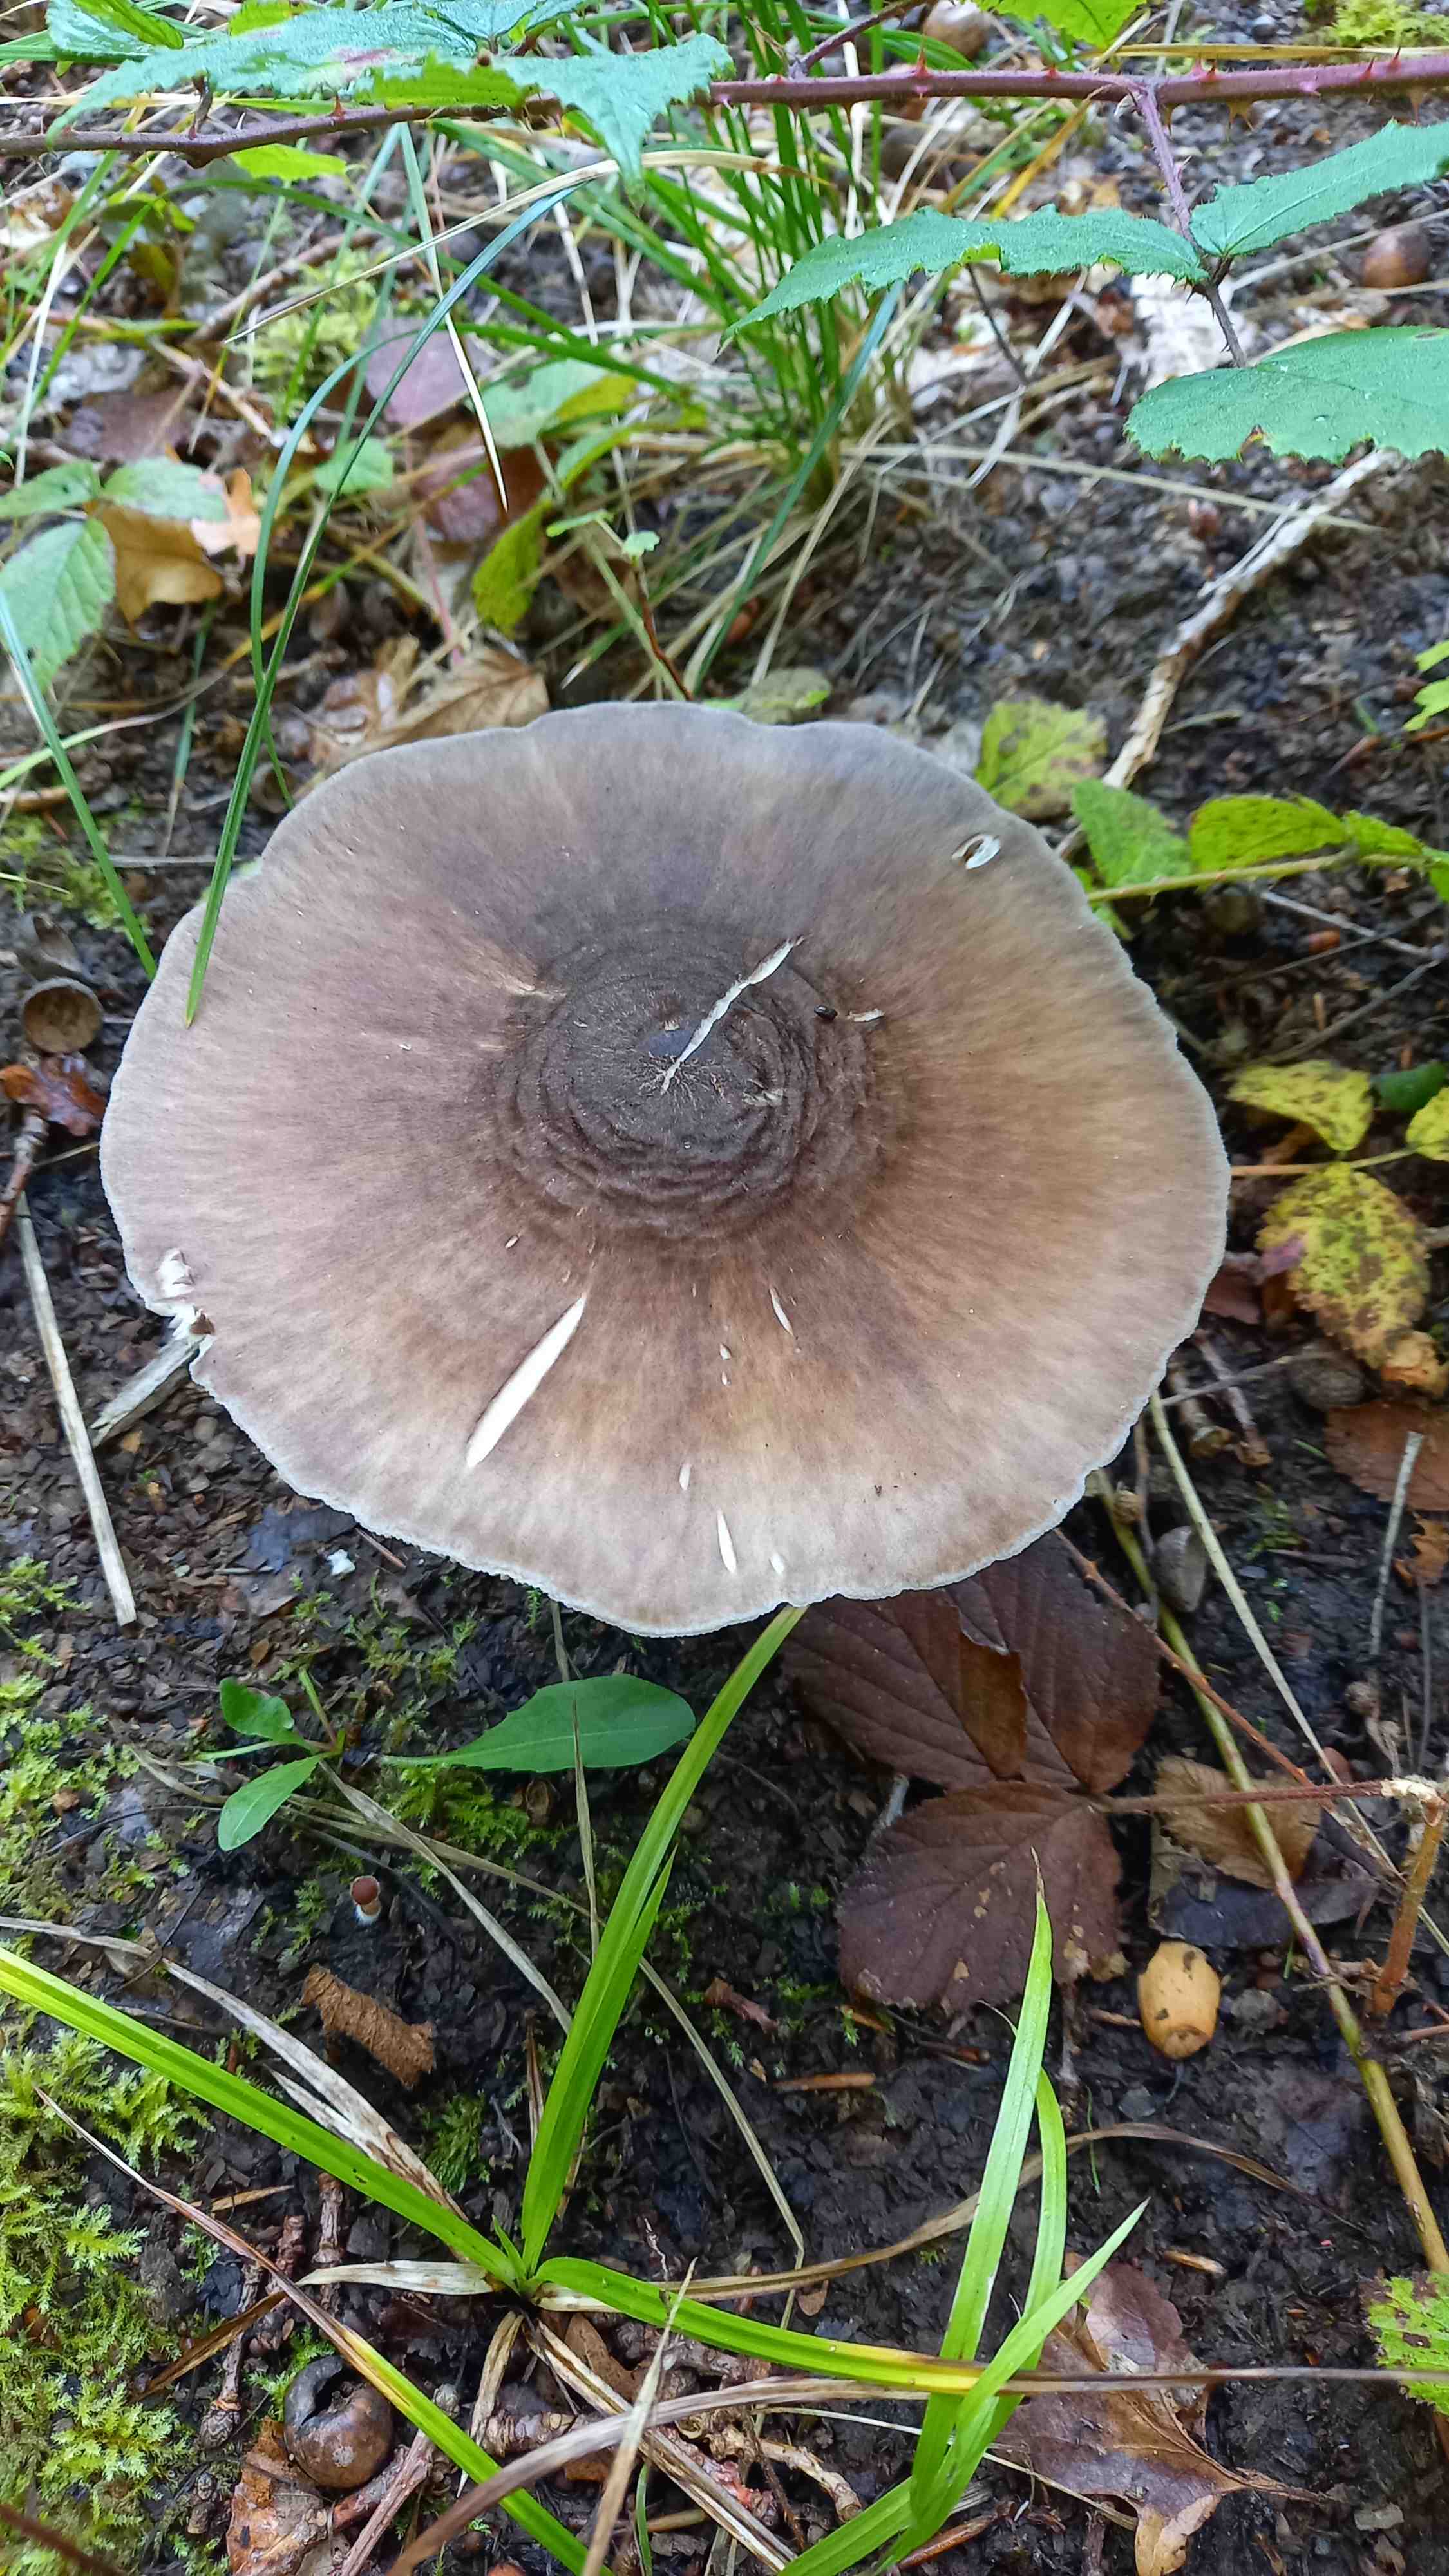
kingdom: Fungi
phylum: Basidiomycota
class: Agaricomycetes
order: Agaricales
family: Pluteaceae
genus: Pluteus
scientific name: Pluteus cervinus
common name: sodfarvet skærmhat
